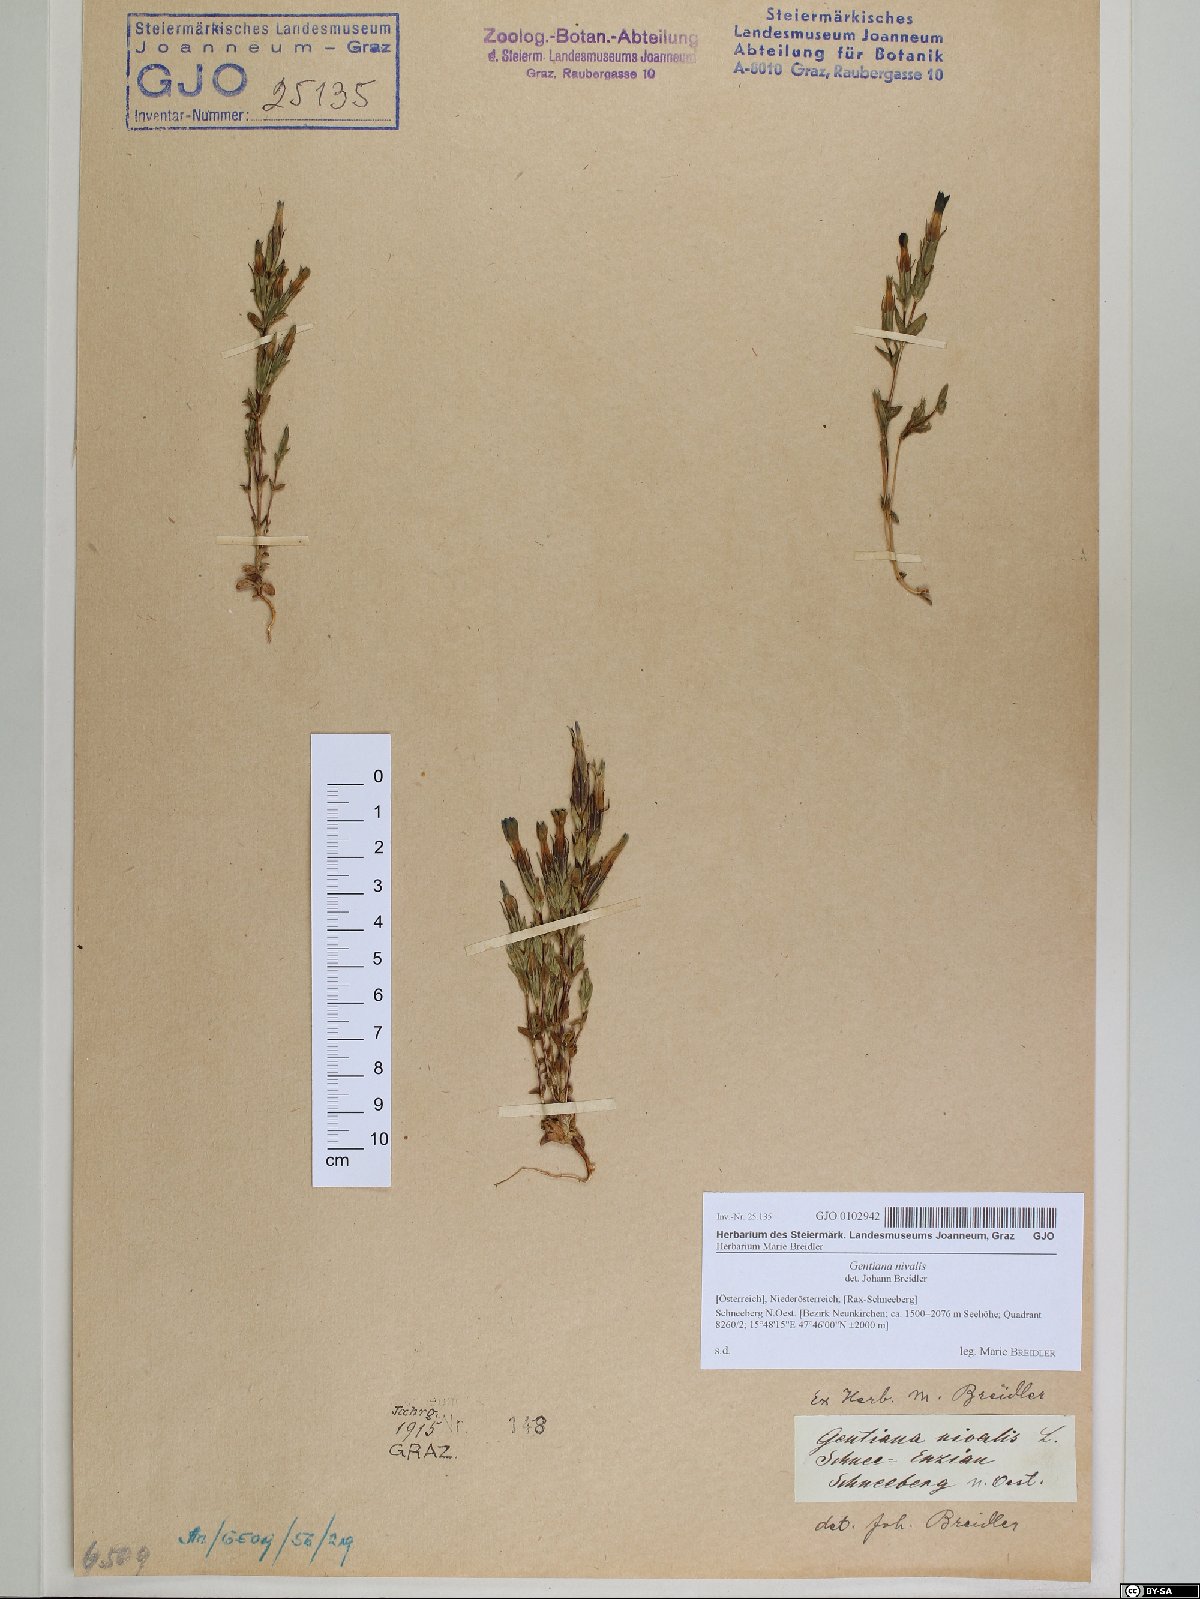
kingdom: Plantae
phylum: Tracheophyta
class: Magnoliopsida
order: Gentianales
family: Gentianaceae
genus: Gentiana
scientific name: Gentiana nivalis
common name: Alpine gentian
